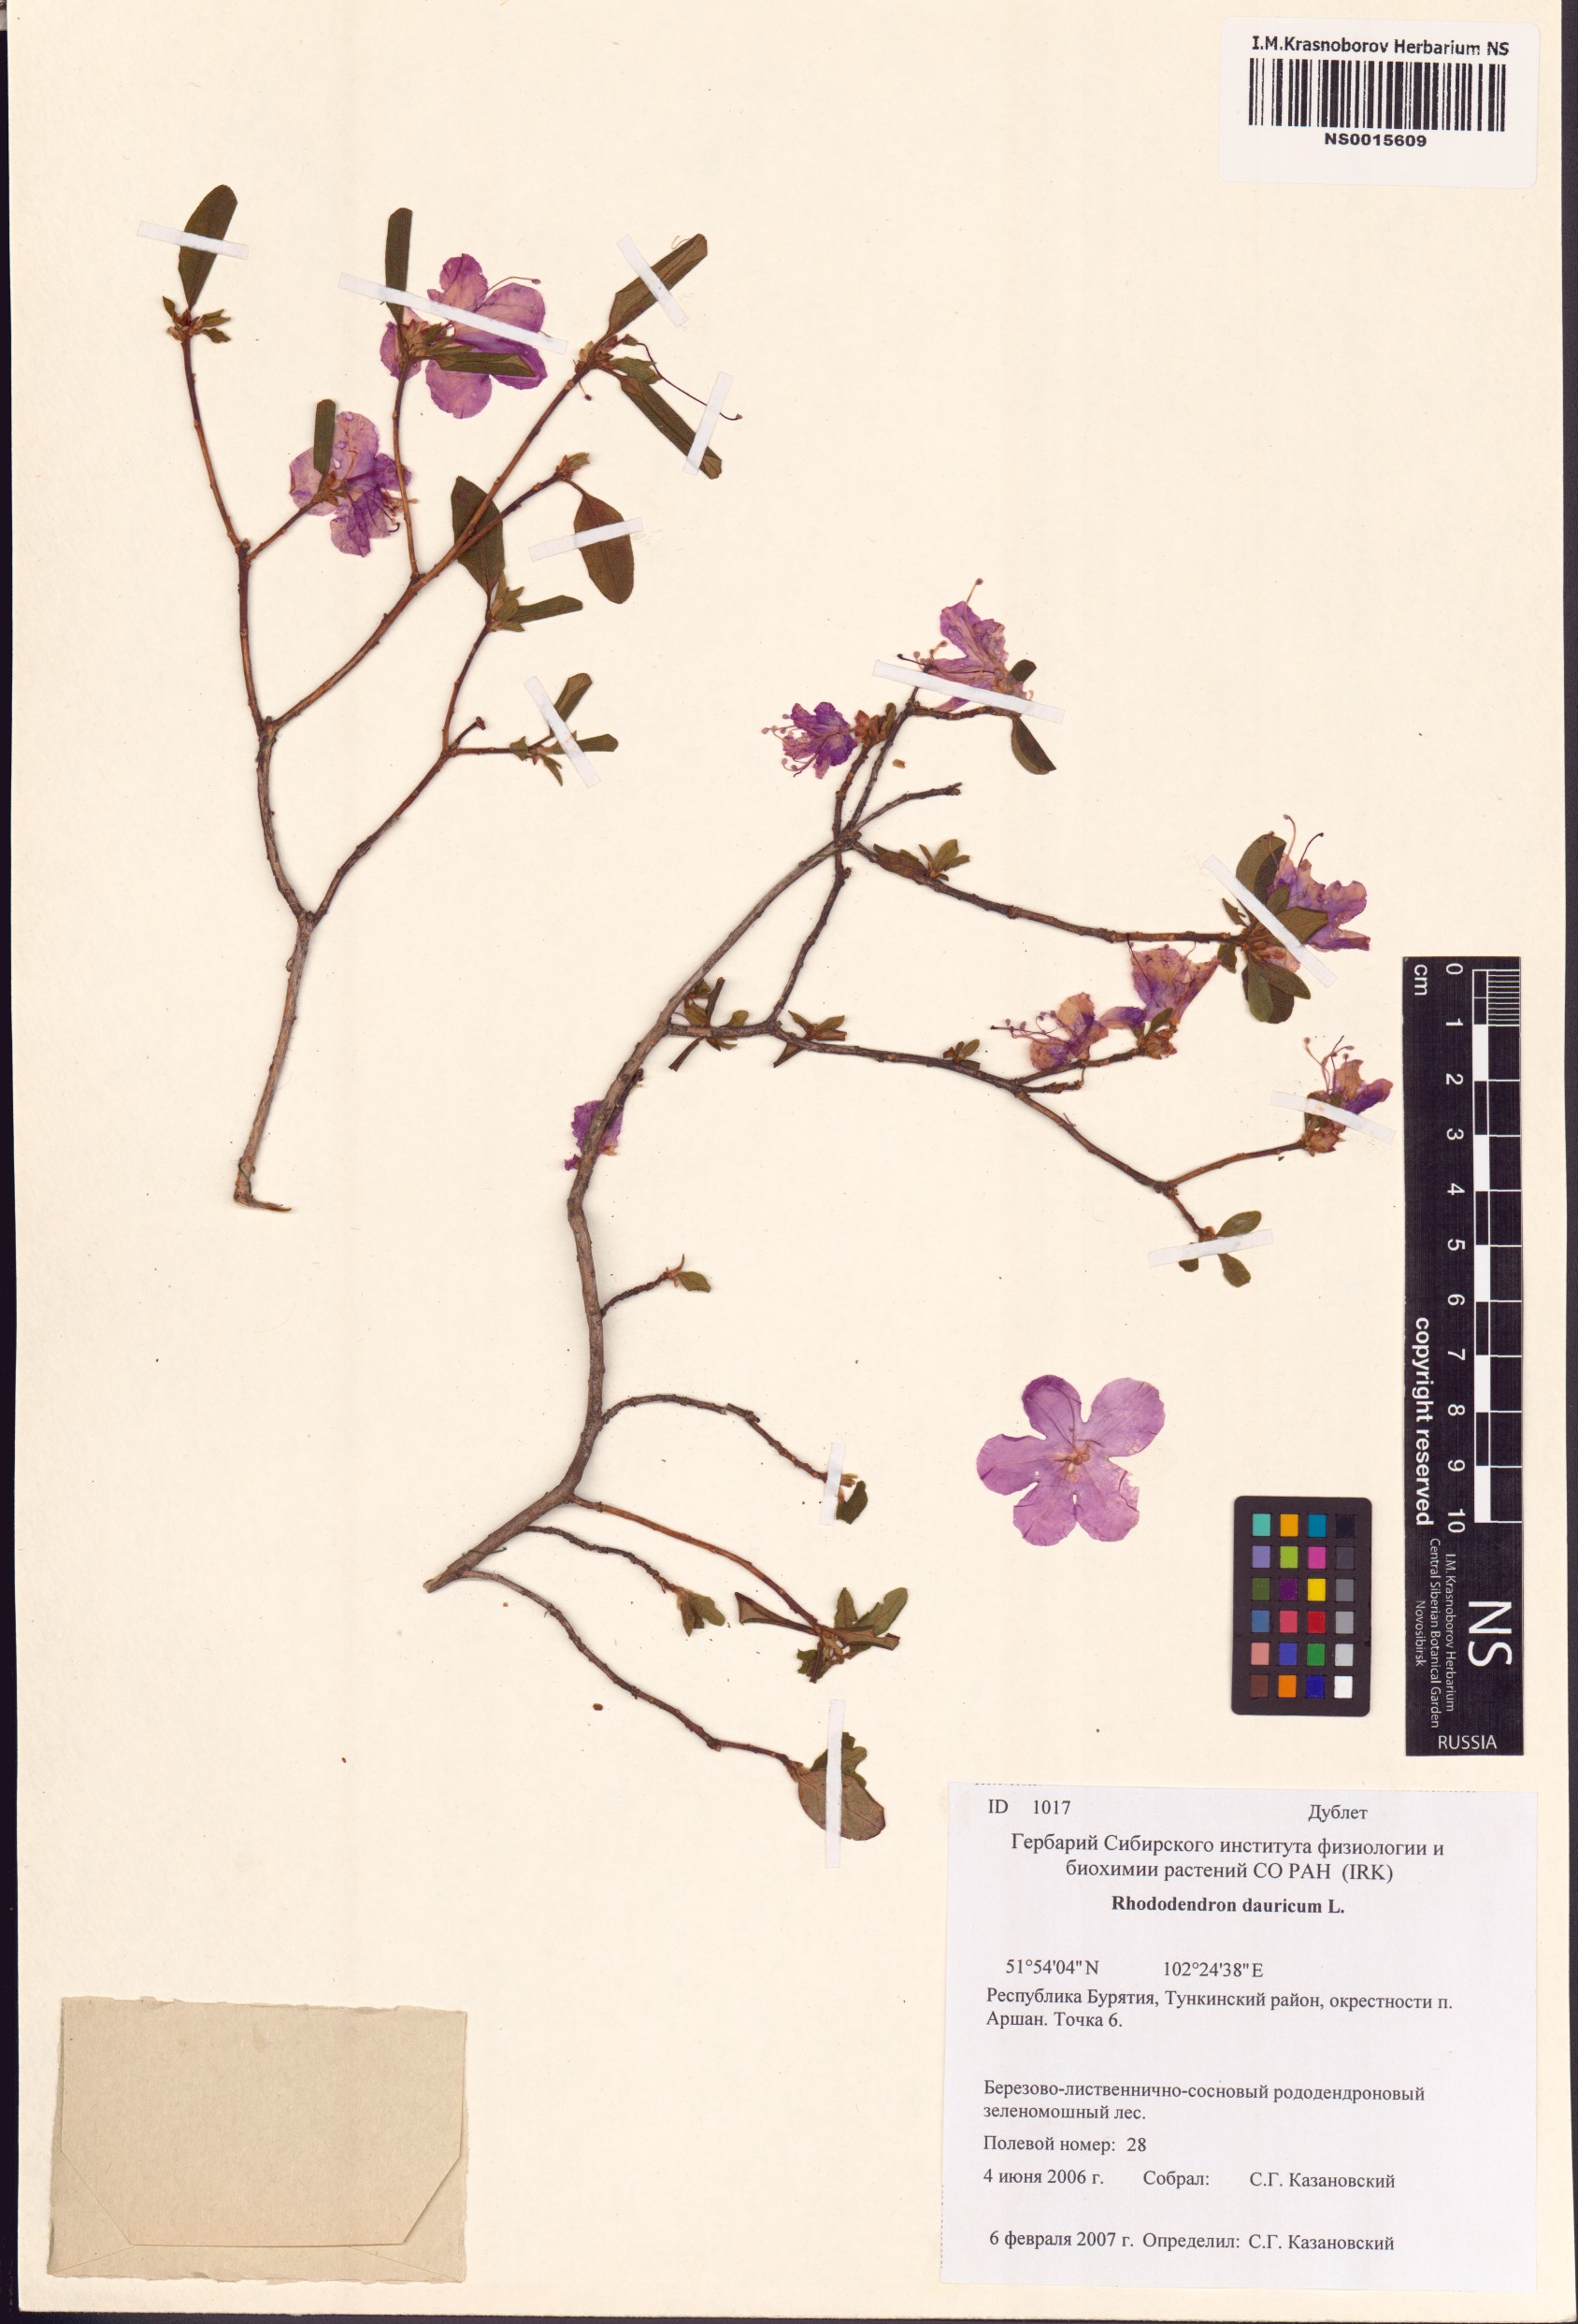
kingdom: Plantae
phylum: Tracheophyta
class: Magnoliopsida
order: Ericales
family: Ericaceae
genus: Rhododendron
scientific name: Rhododendron dauricum
